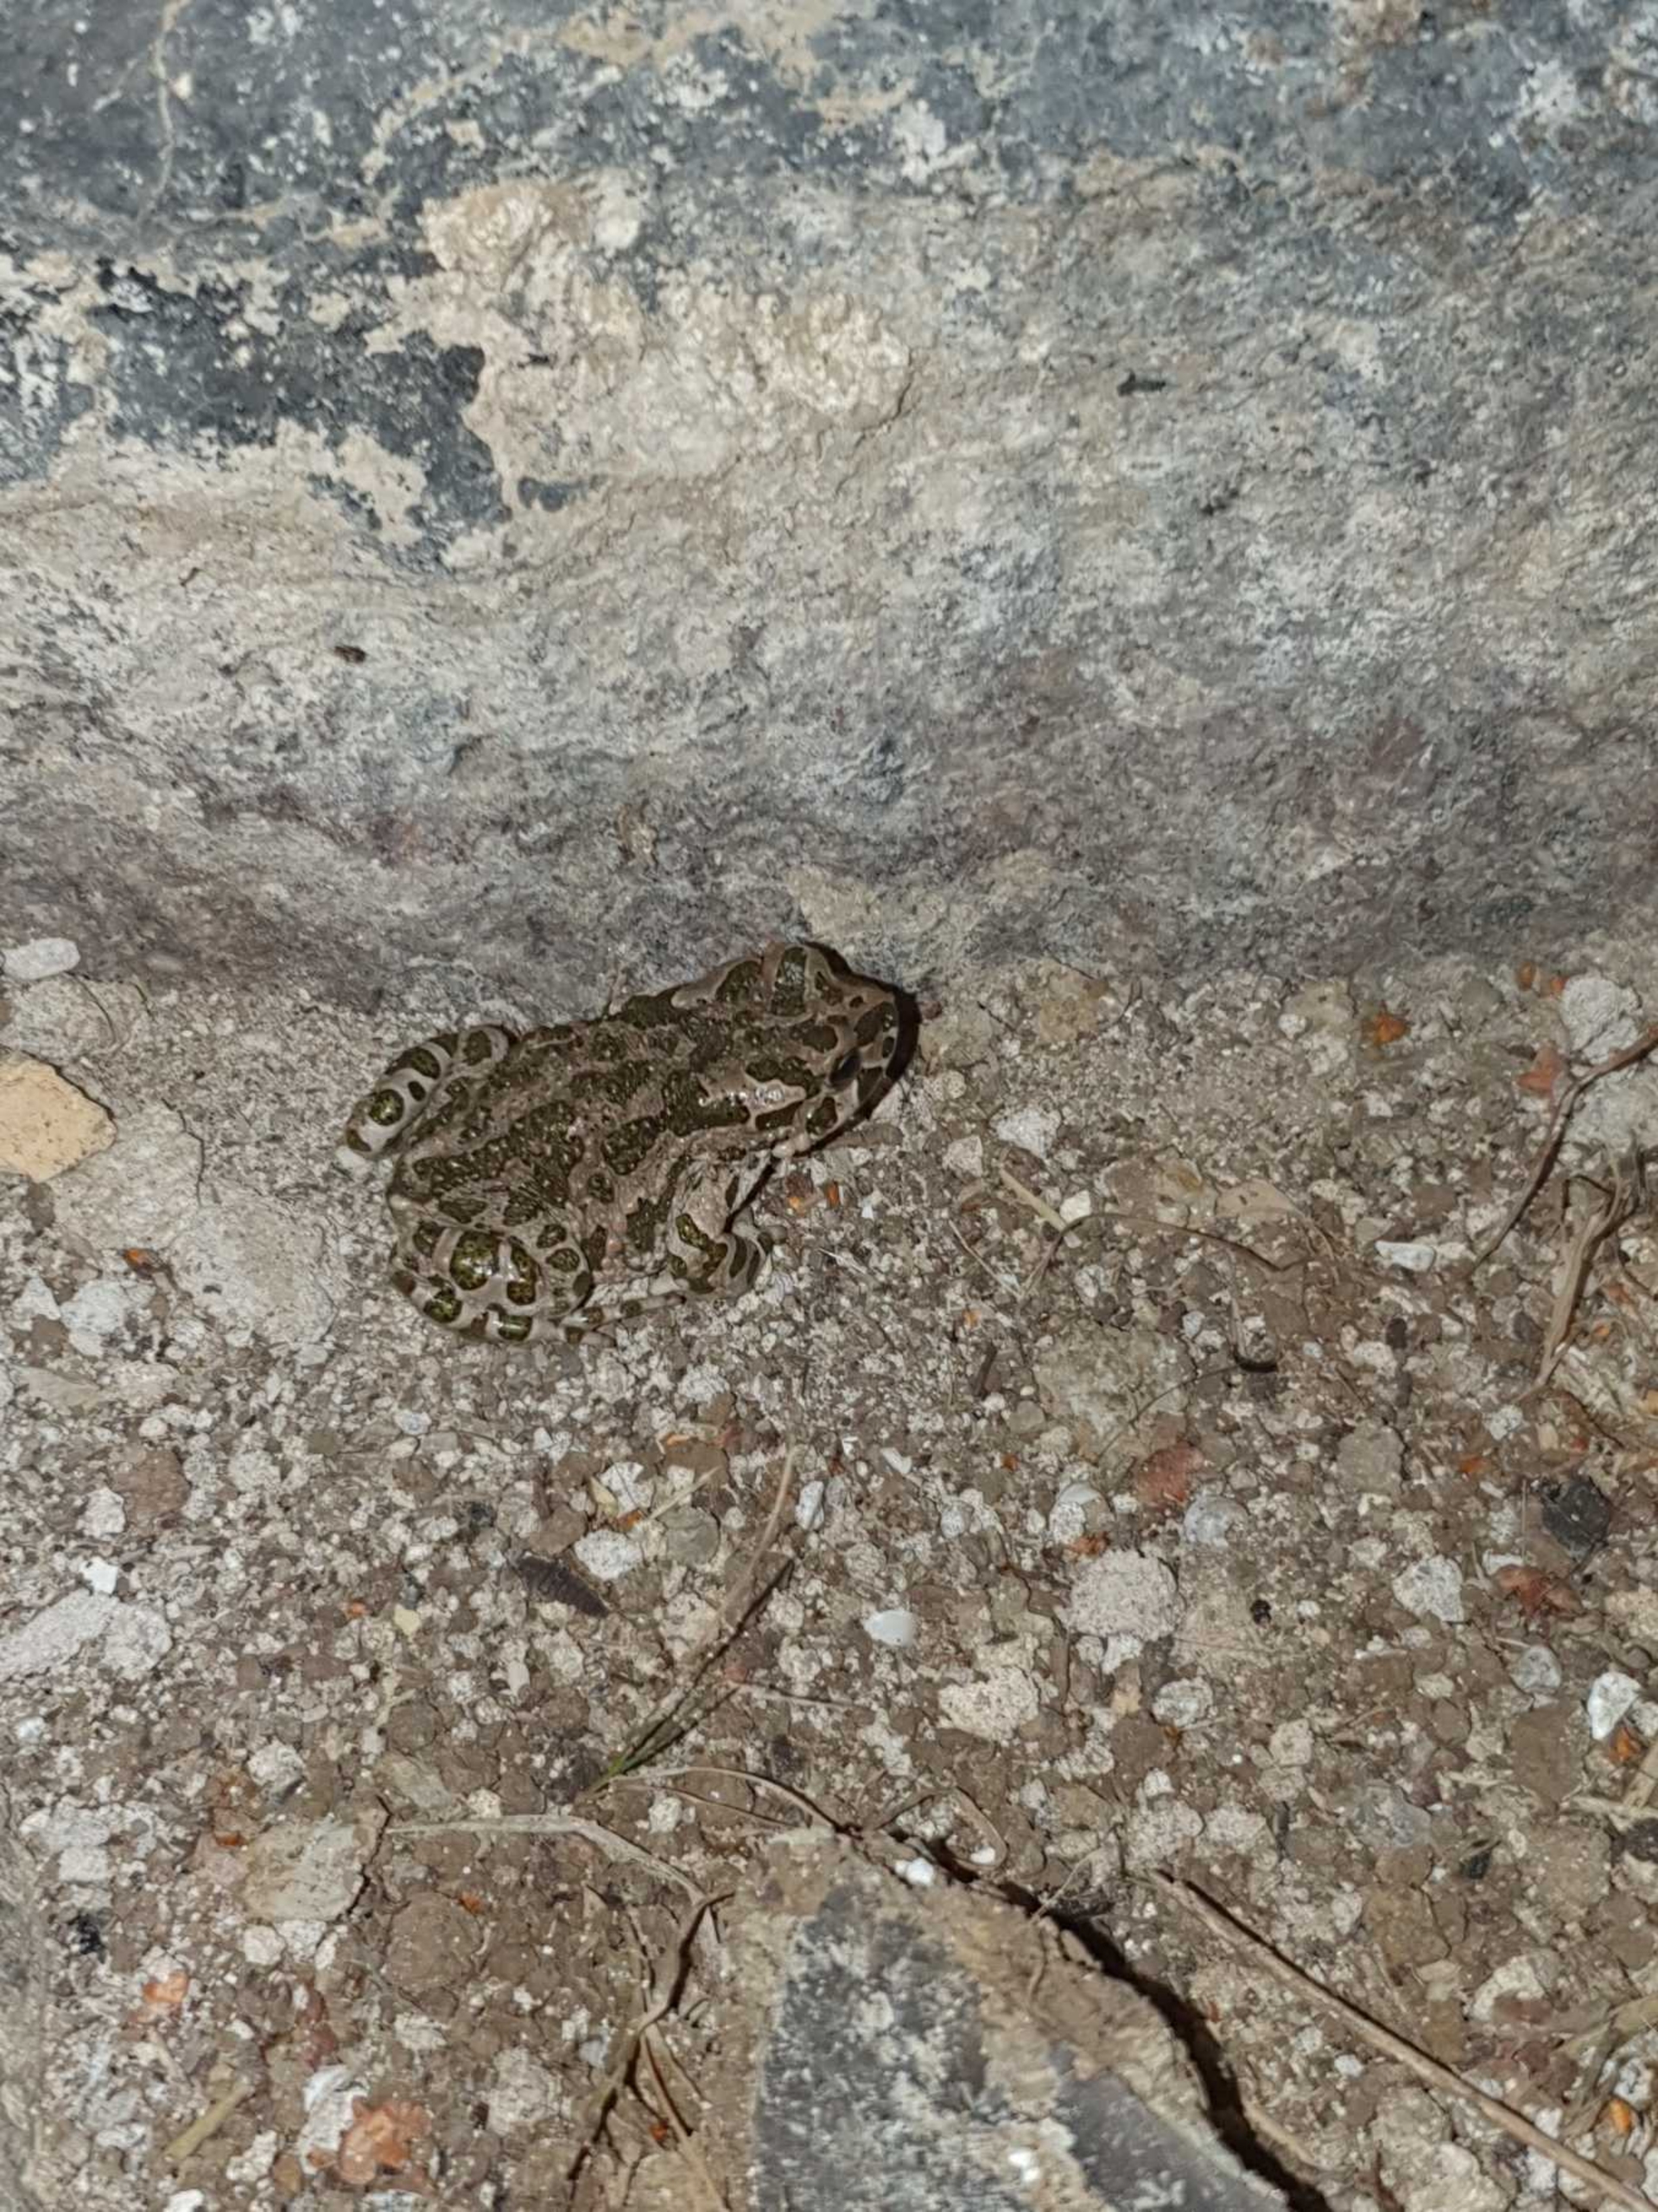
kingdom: Animalia
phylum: Chordata
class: Amphibia
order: Anura
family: Bufonidae
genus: Bufotes
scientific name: Bufotes viridis
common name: Grønbroget tudse
